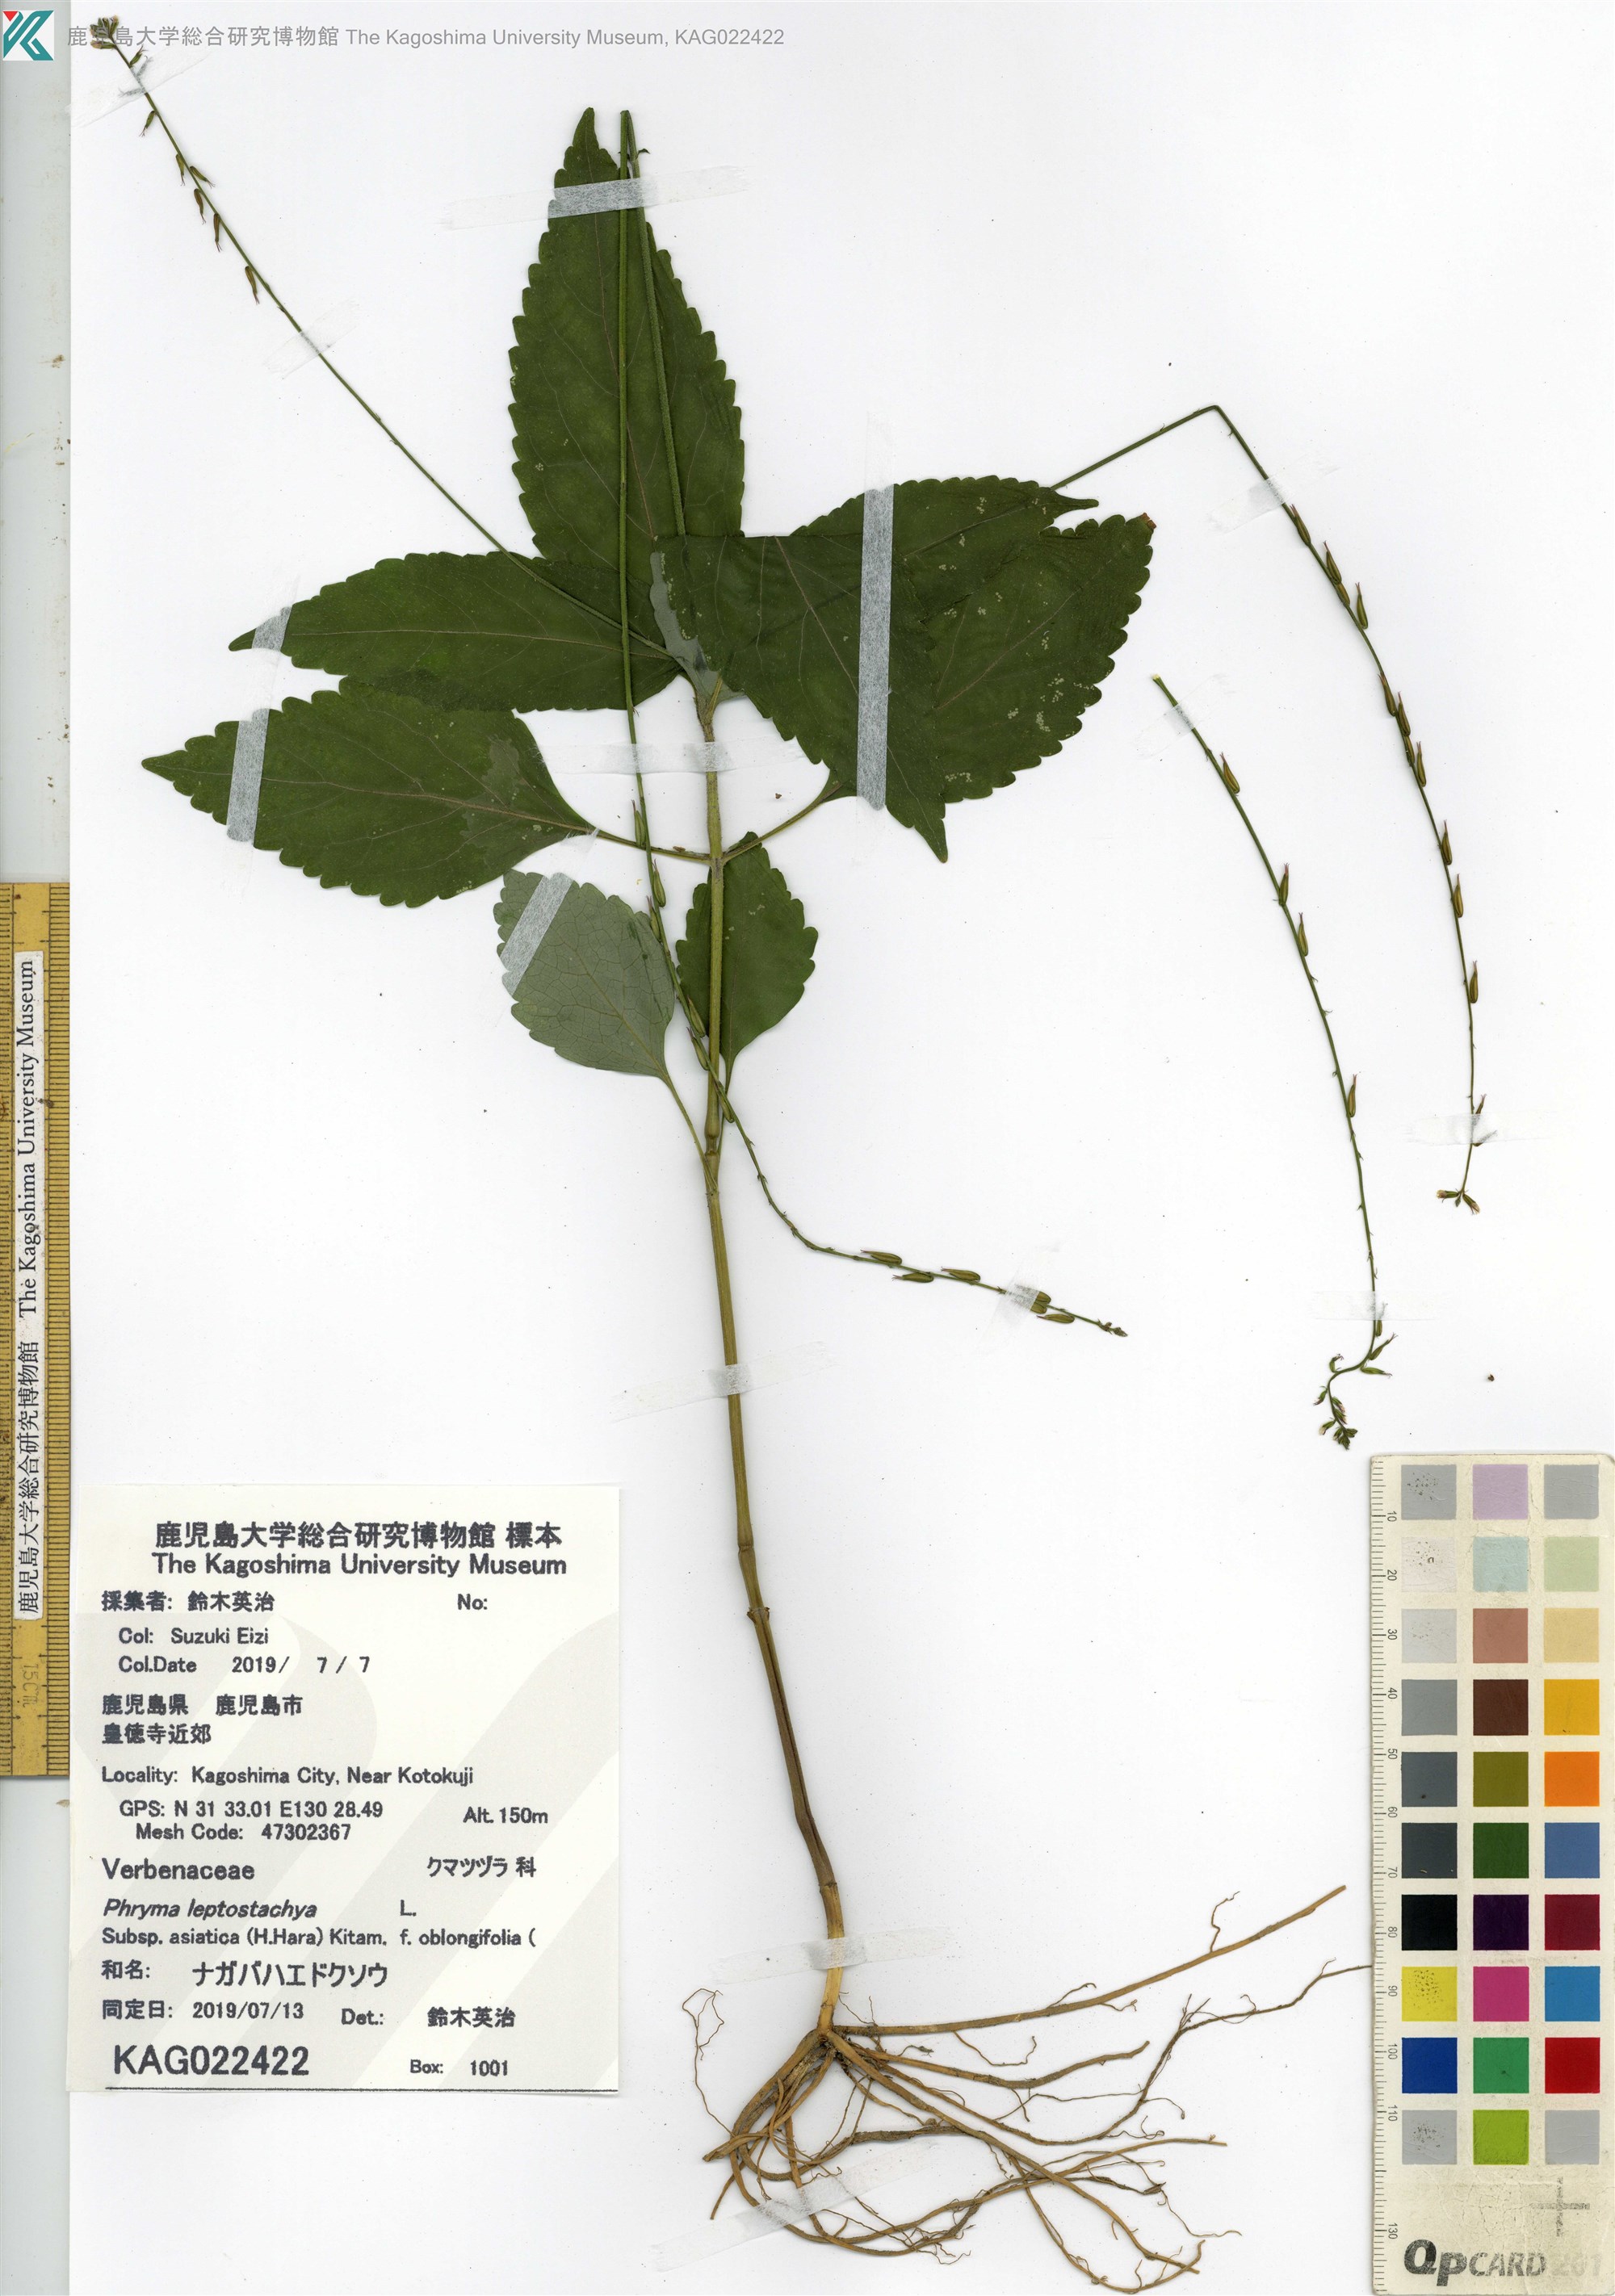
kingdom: Plantae
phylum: Tracheophyta
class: Magnoliopsida
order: Lamiales
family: Phrymaceae
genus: Phryma
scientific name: Phryma oblongifolia
